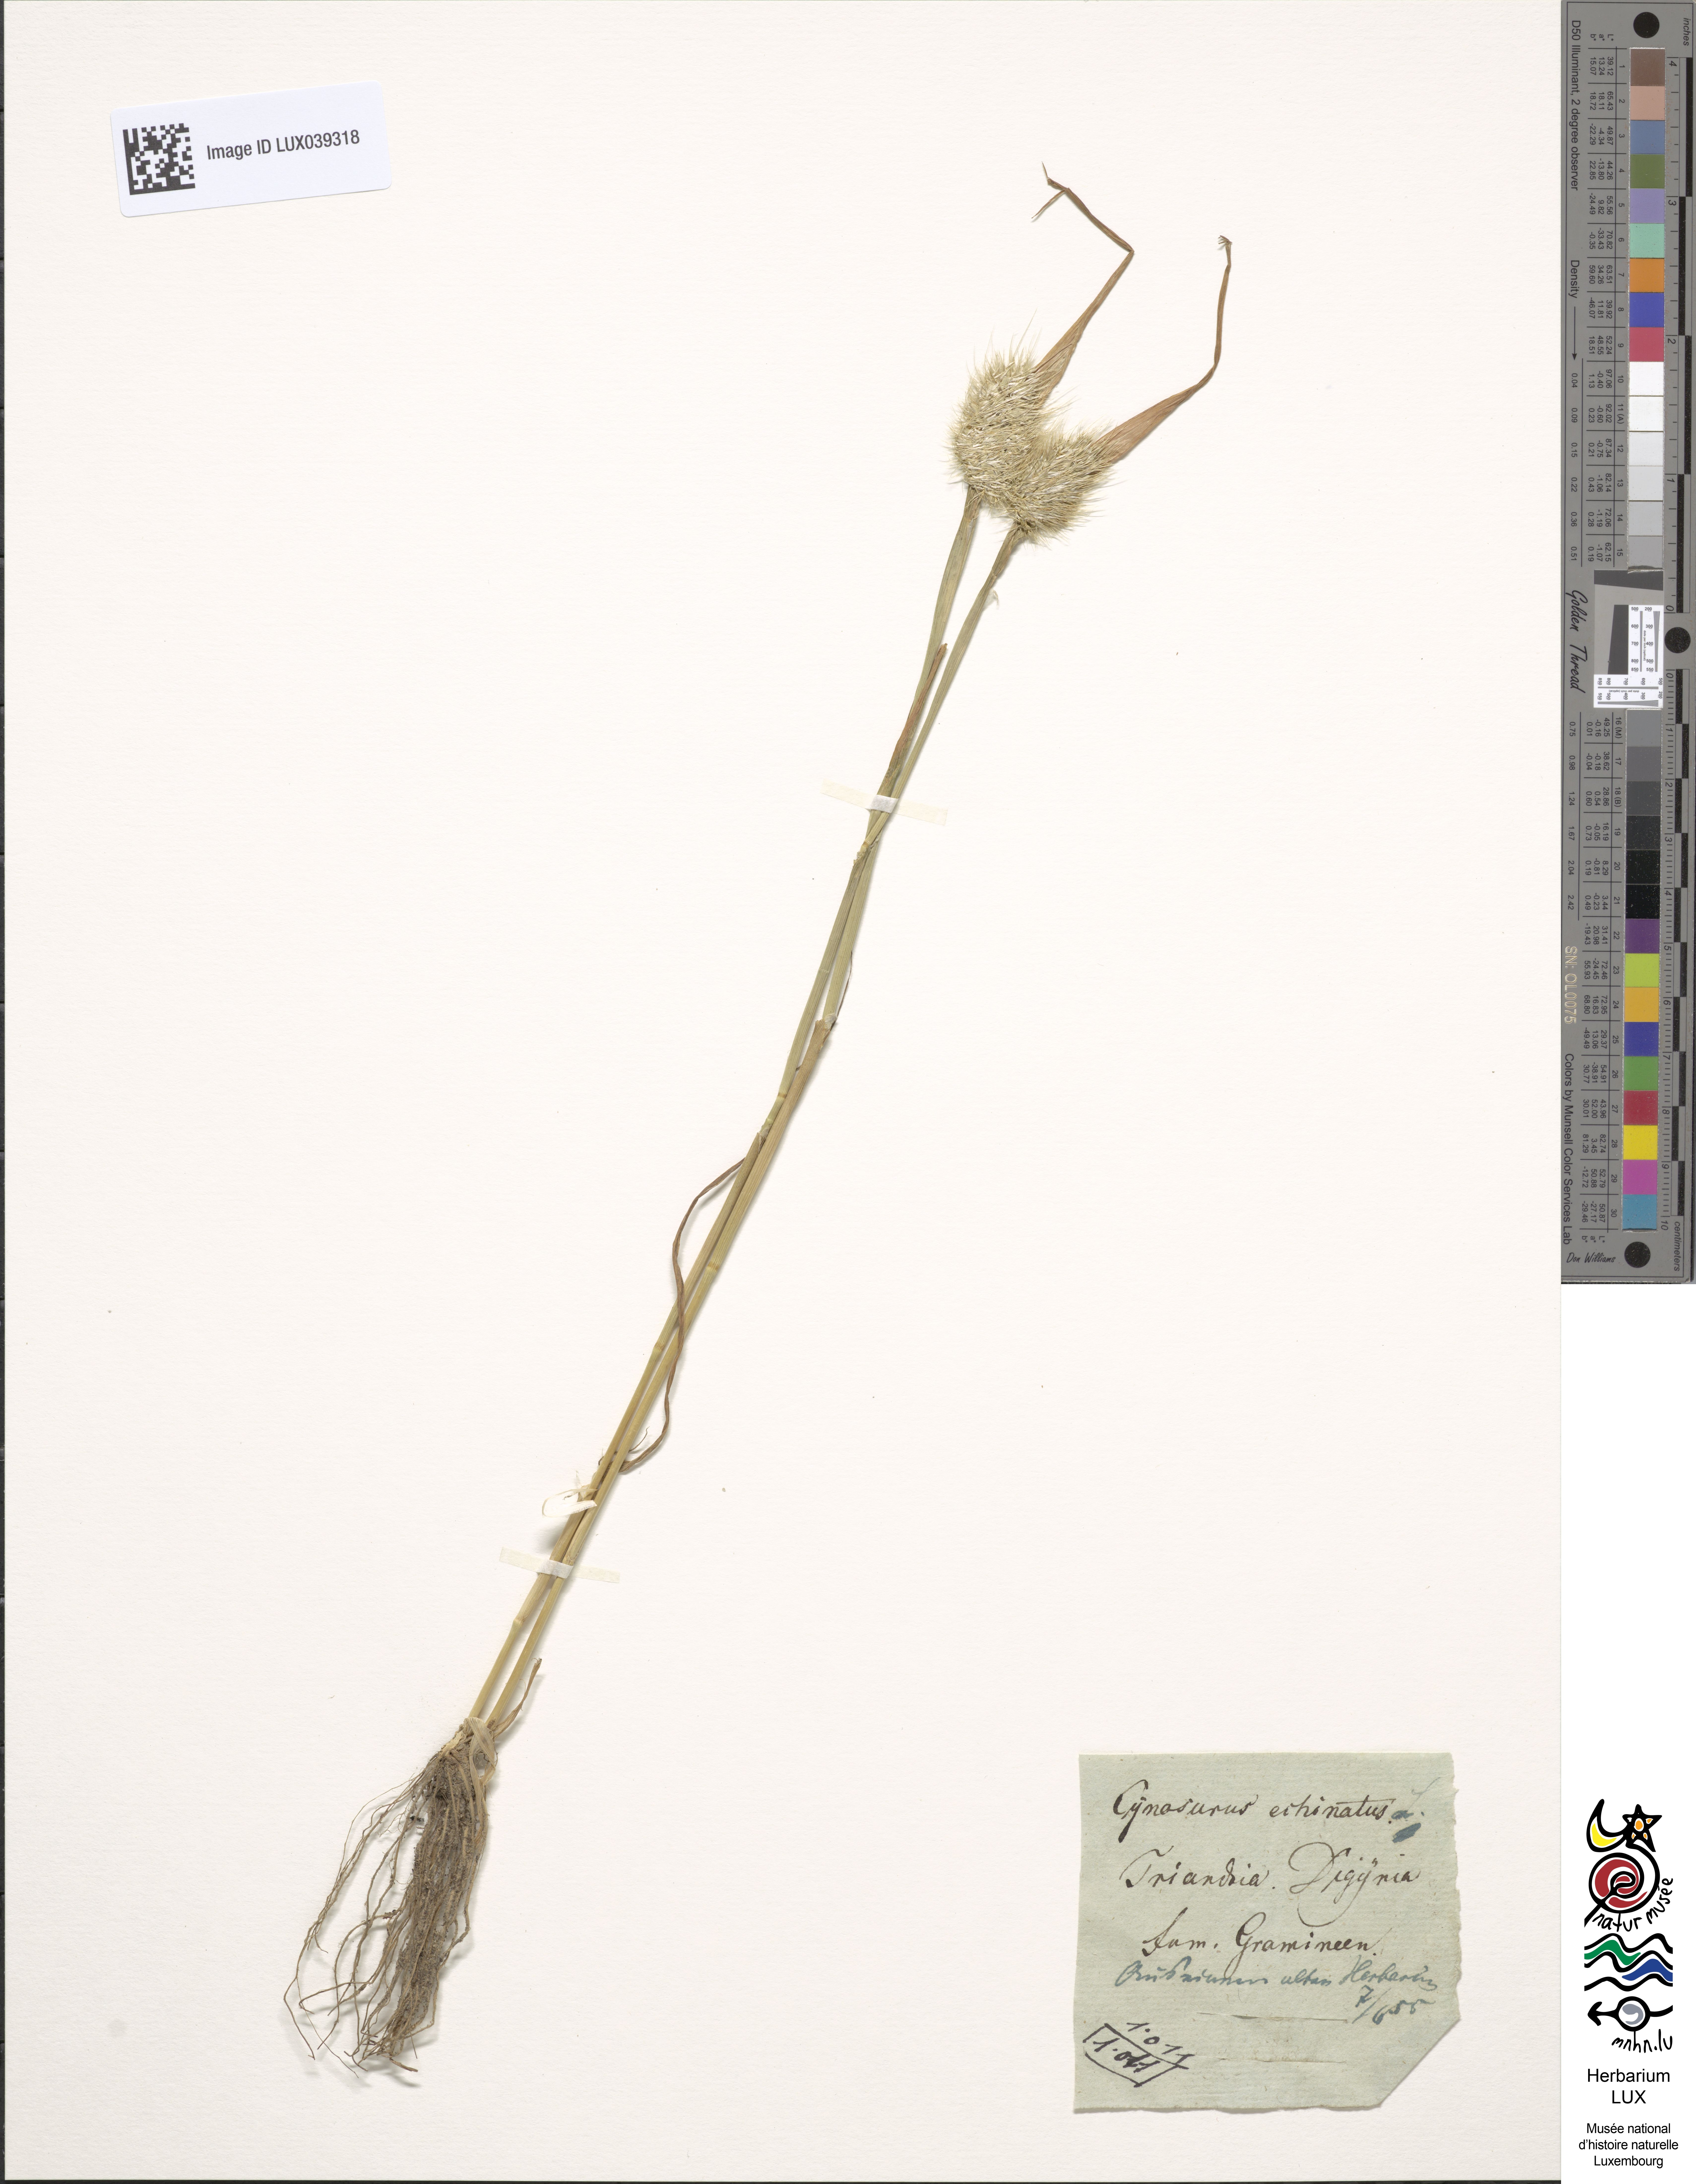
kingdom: Plantae
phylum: Tracheophyta
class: Liliopsida
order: Poales
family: Poaceae
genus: Cynosurus
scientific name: Cynosurus echinatus
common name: Rough dog's-tail
